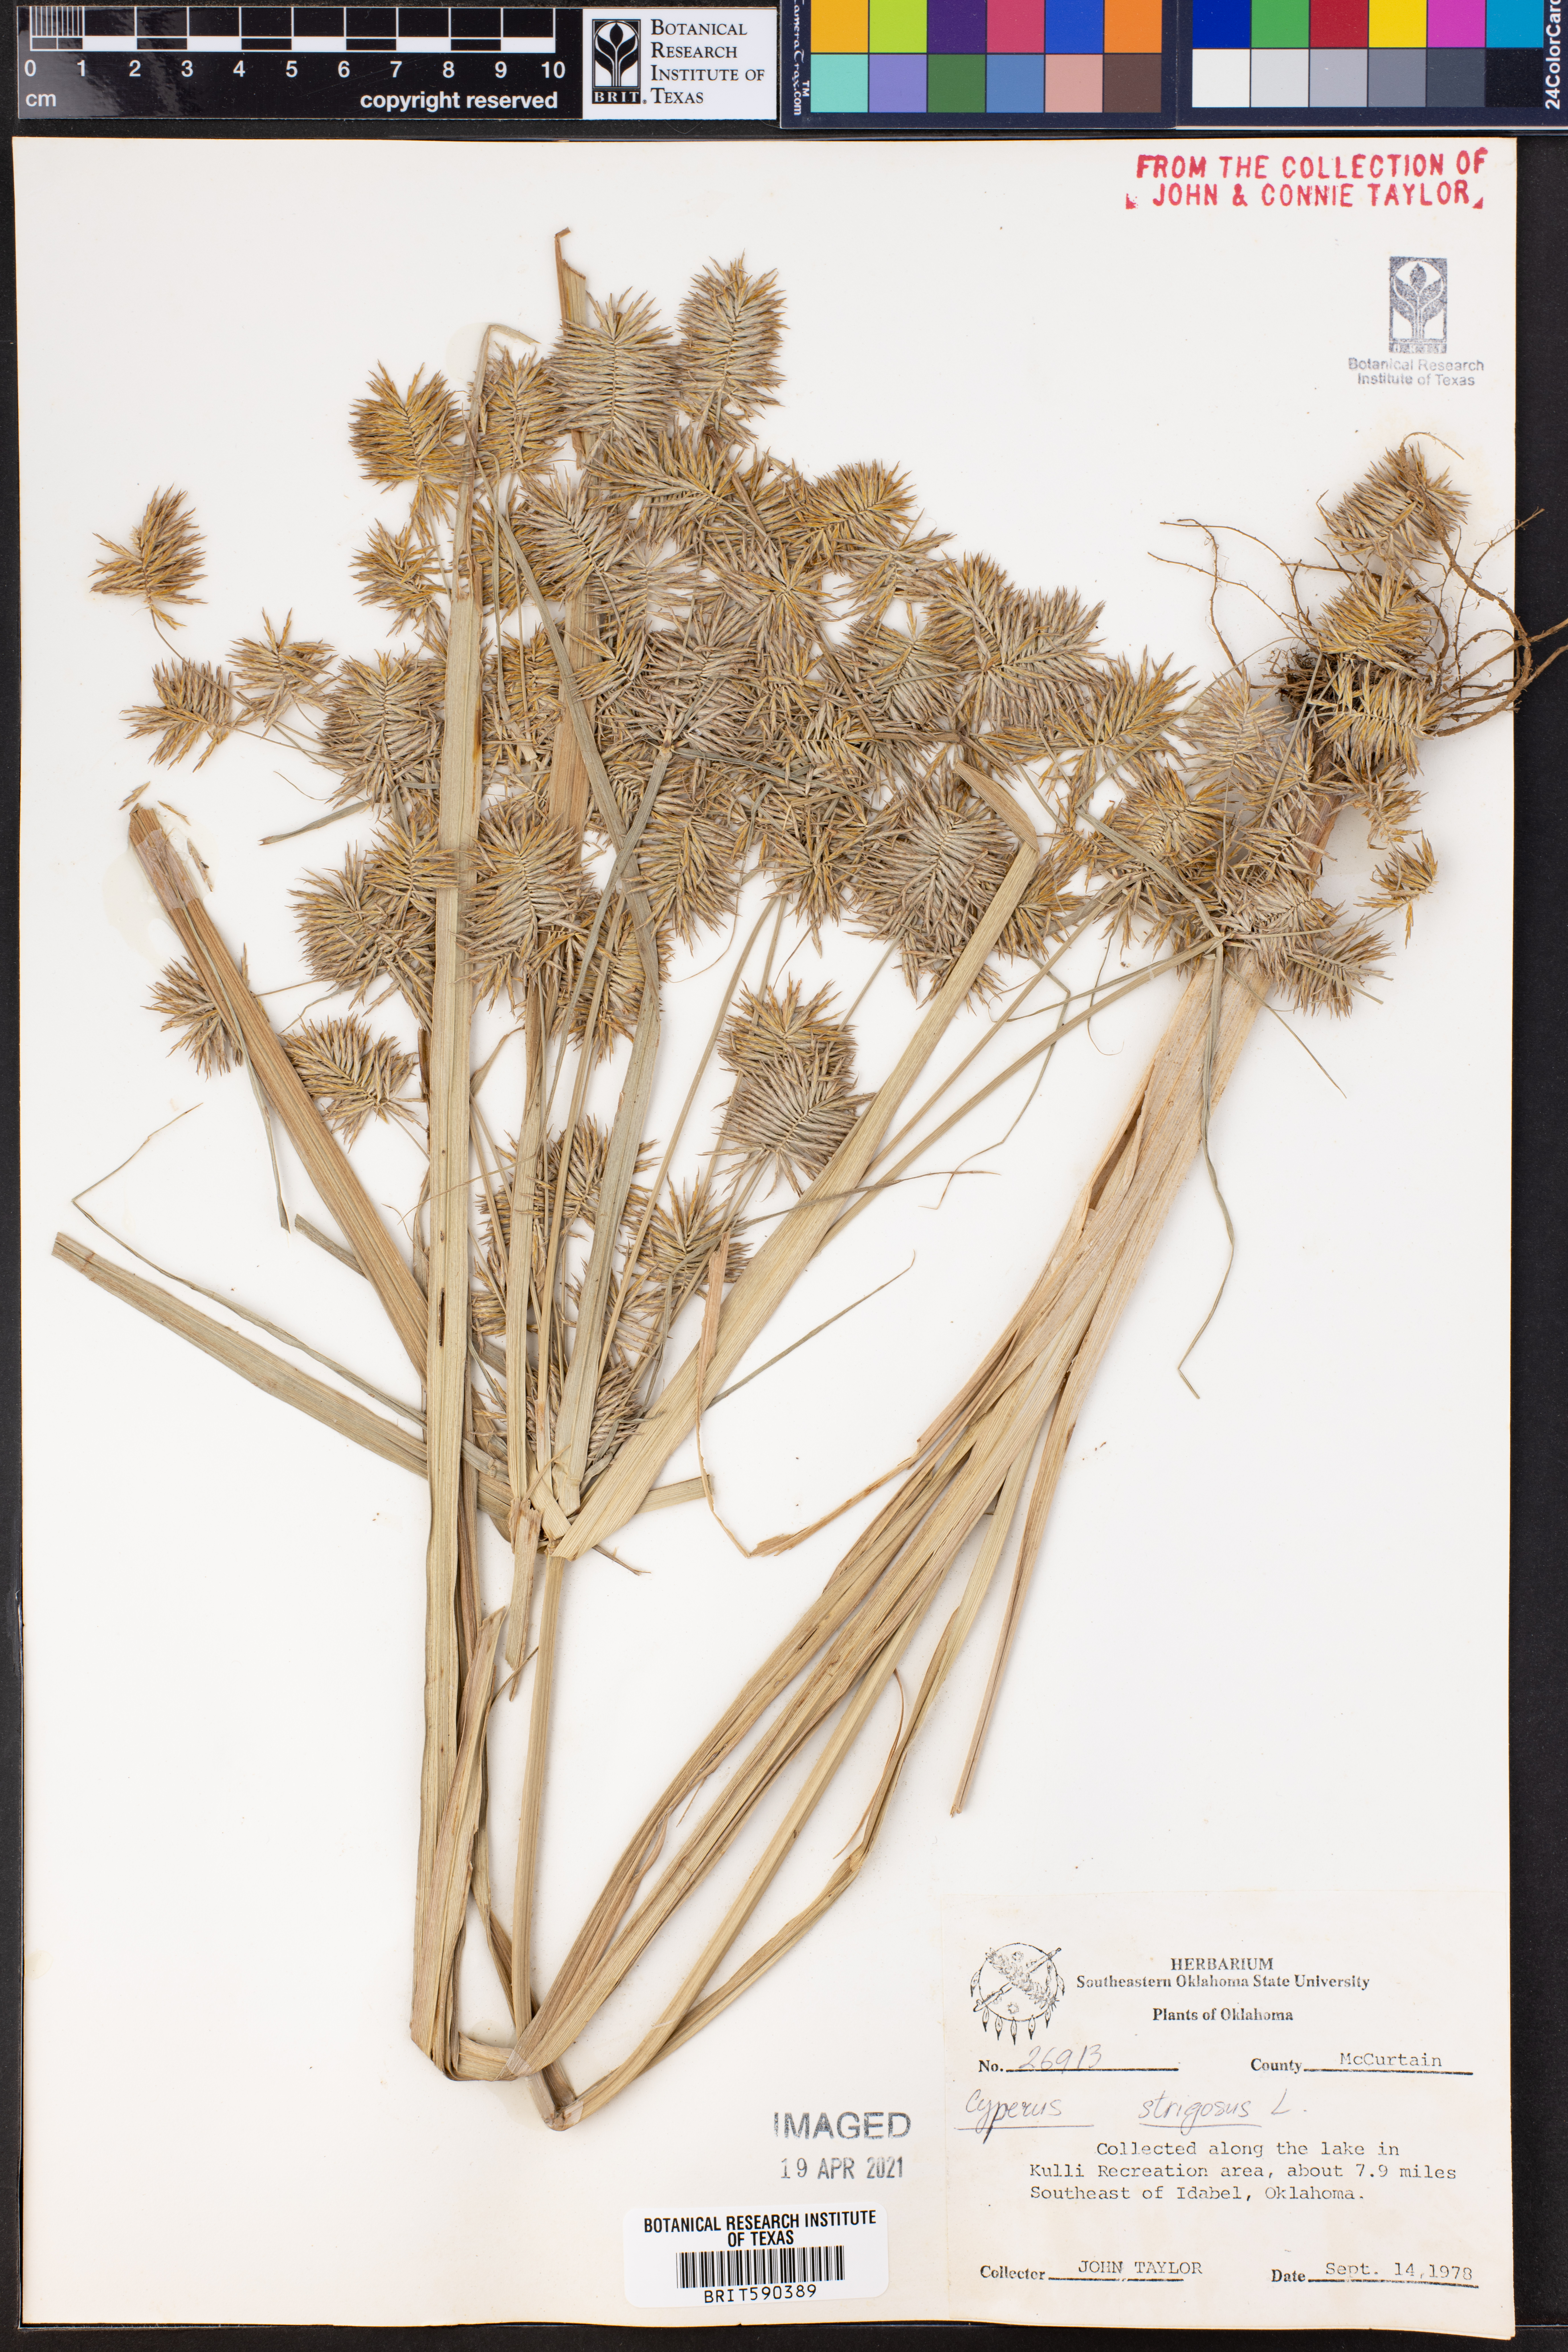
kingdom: Plantae
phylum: Tracheophyta
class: Liliopsida
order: Poales
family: Cyperaceae
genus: Cyperus
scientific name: Cyperus strigosus
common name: False nutsedge
